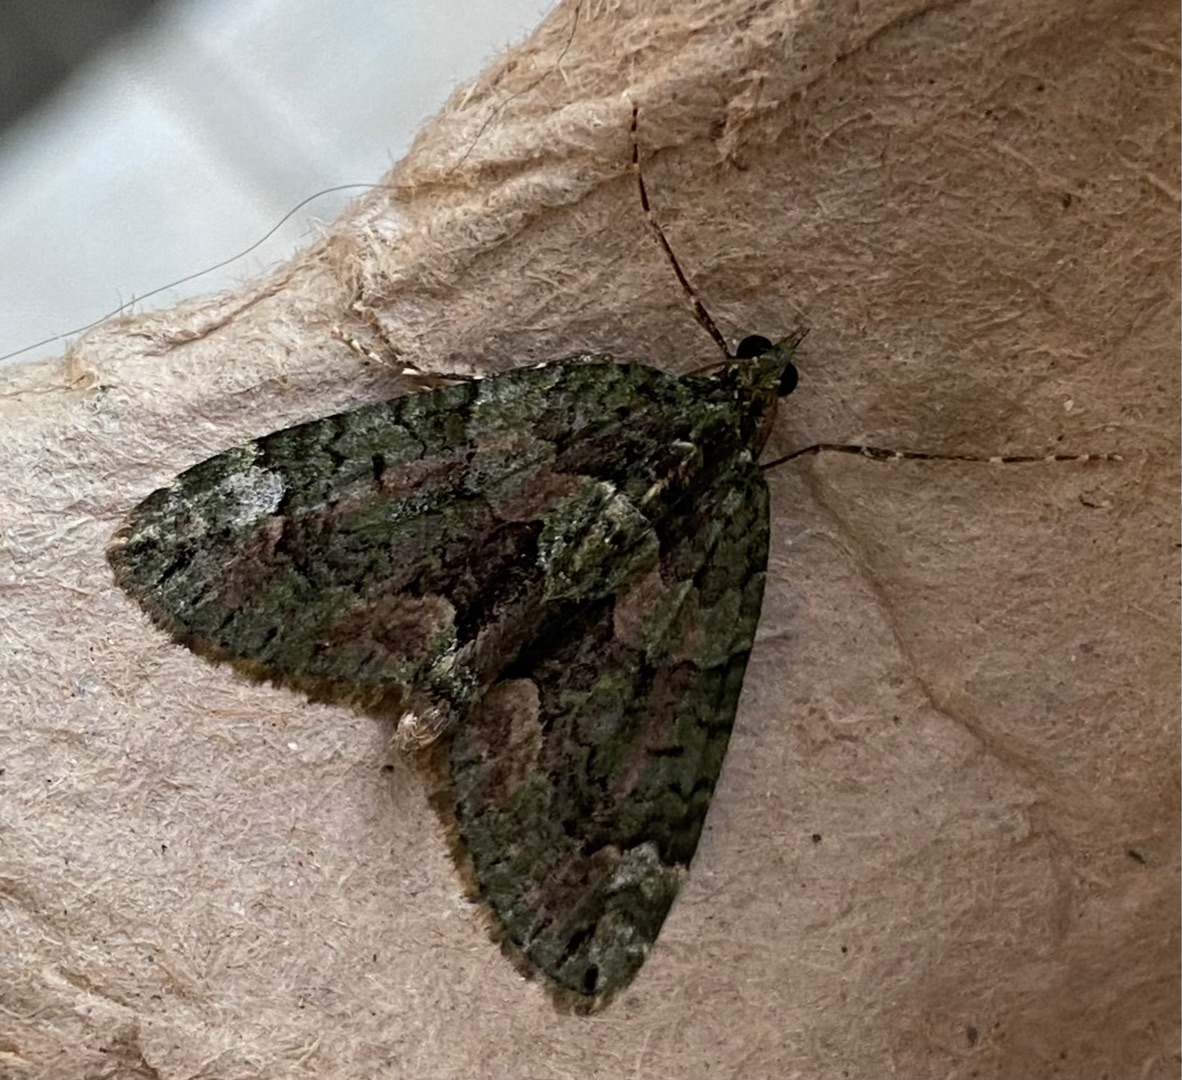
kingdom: Animalia
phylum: Arthropoda
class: Insecta
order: Lepidoptera
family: Geometridae
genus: Chloroclysta
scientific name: Chloroclysta siterata
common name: Brungrøn bladmåler
